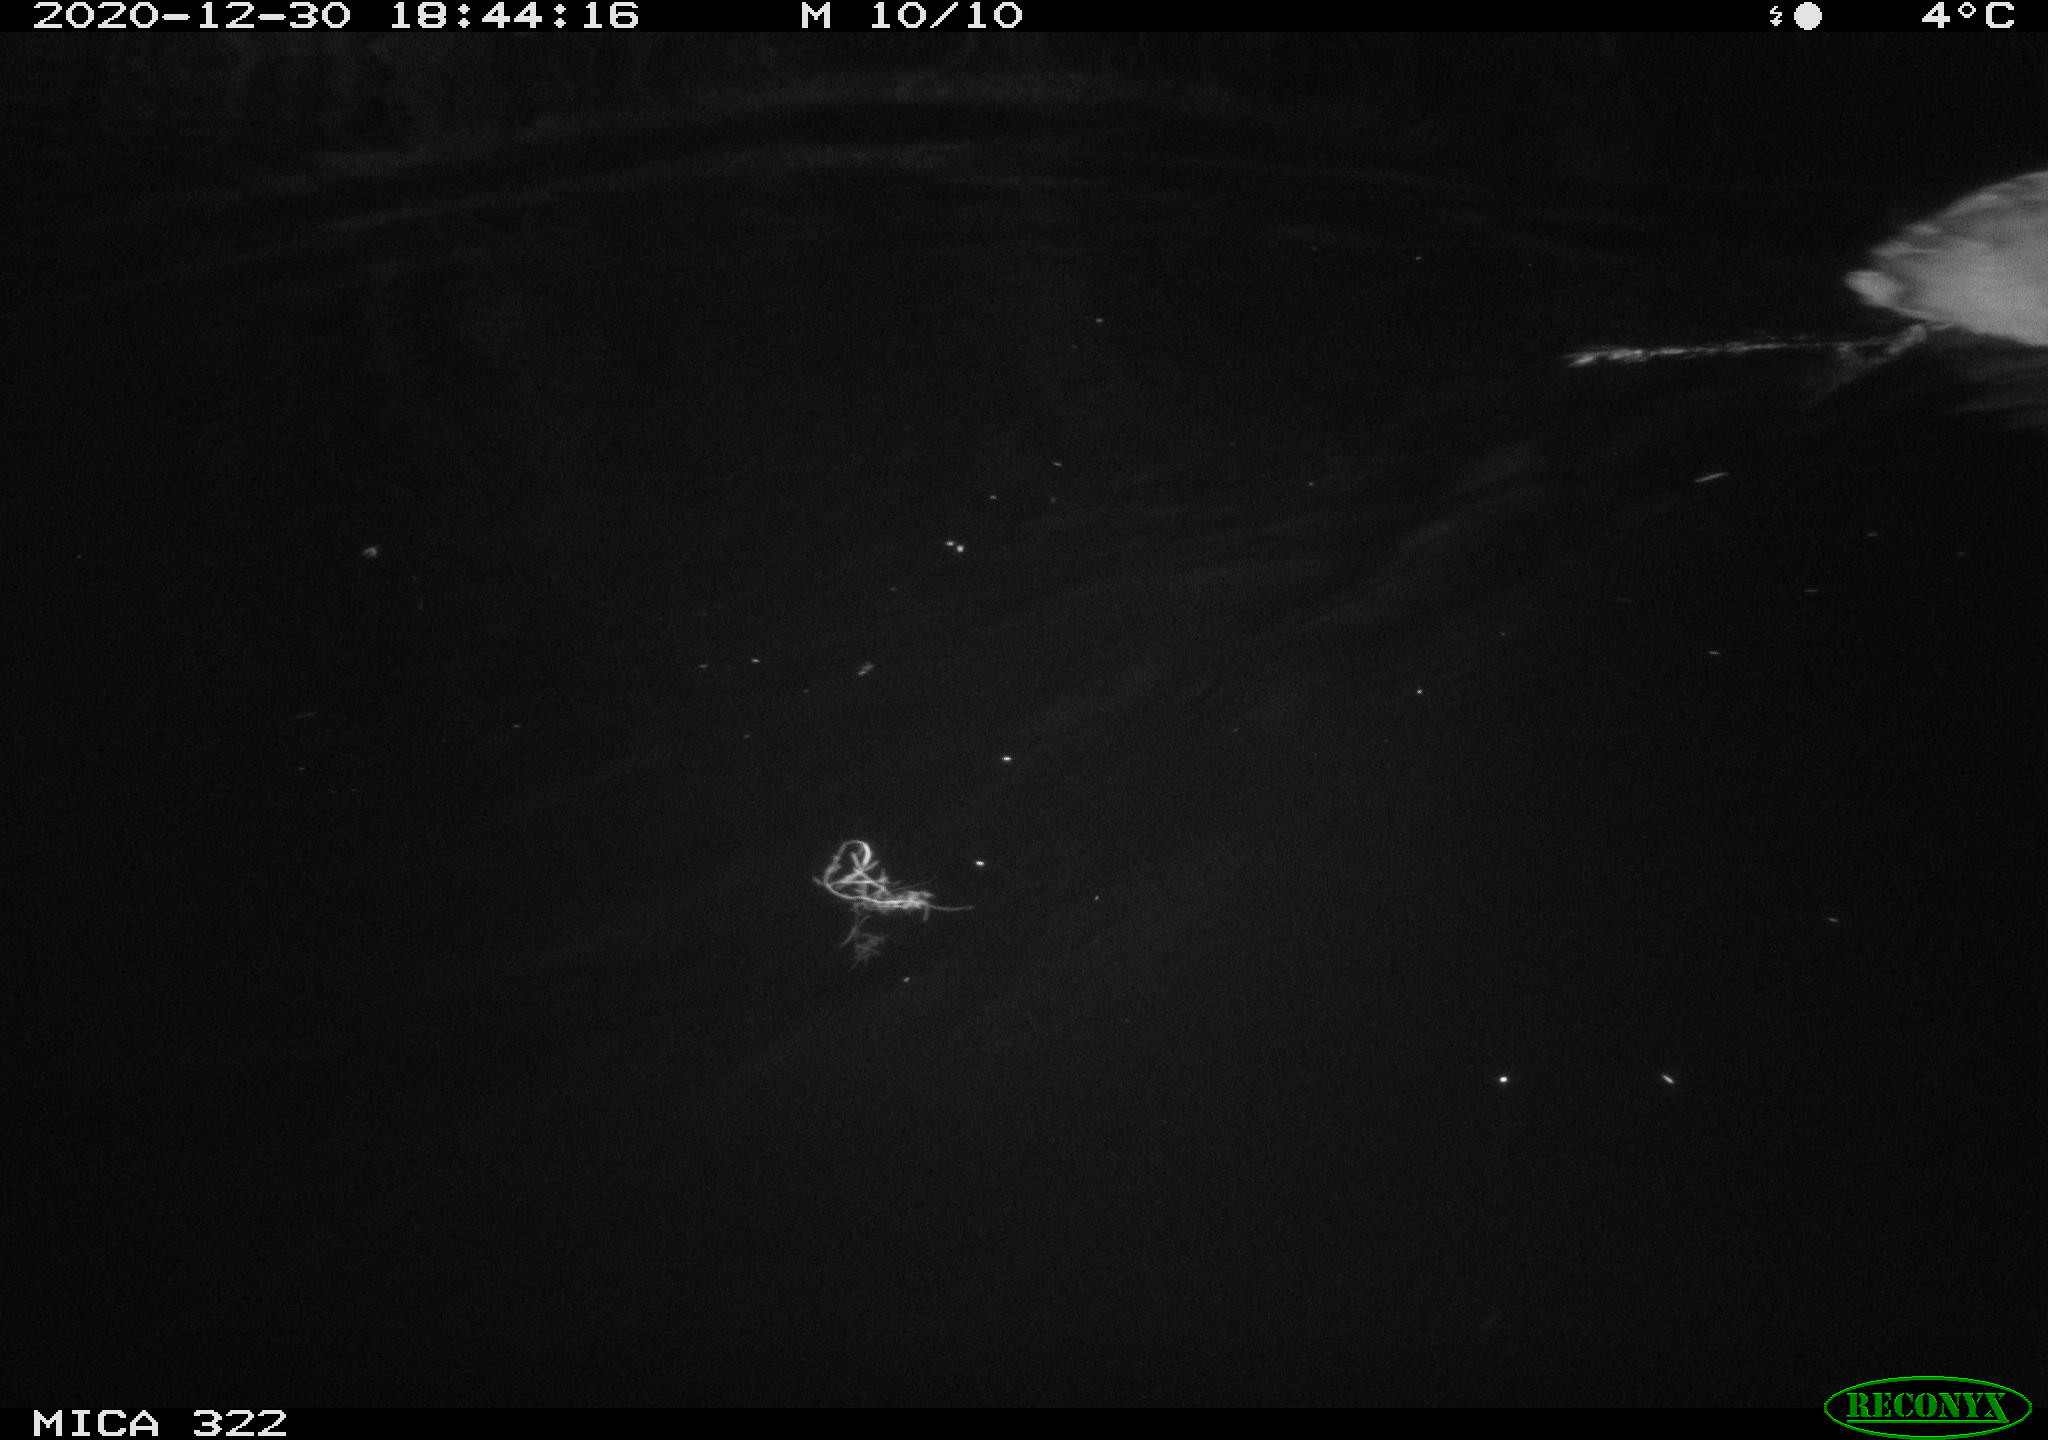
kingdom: Animalia
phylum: Chordata
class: Aves
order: Gruiformes
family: Rallidae
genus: Fulica
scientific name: Fulica atra
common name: Eurasian coot
